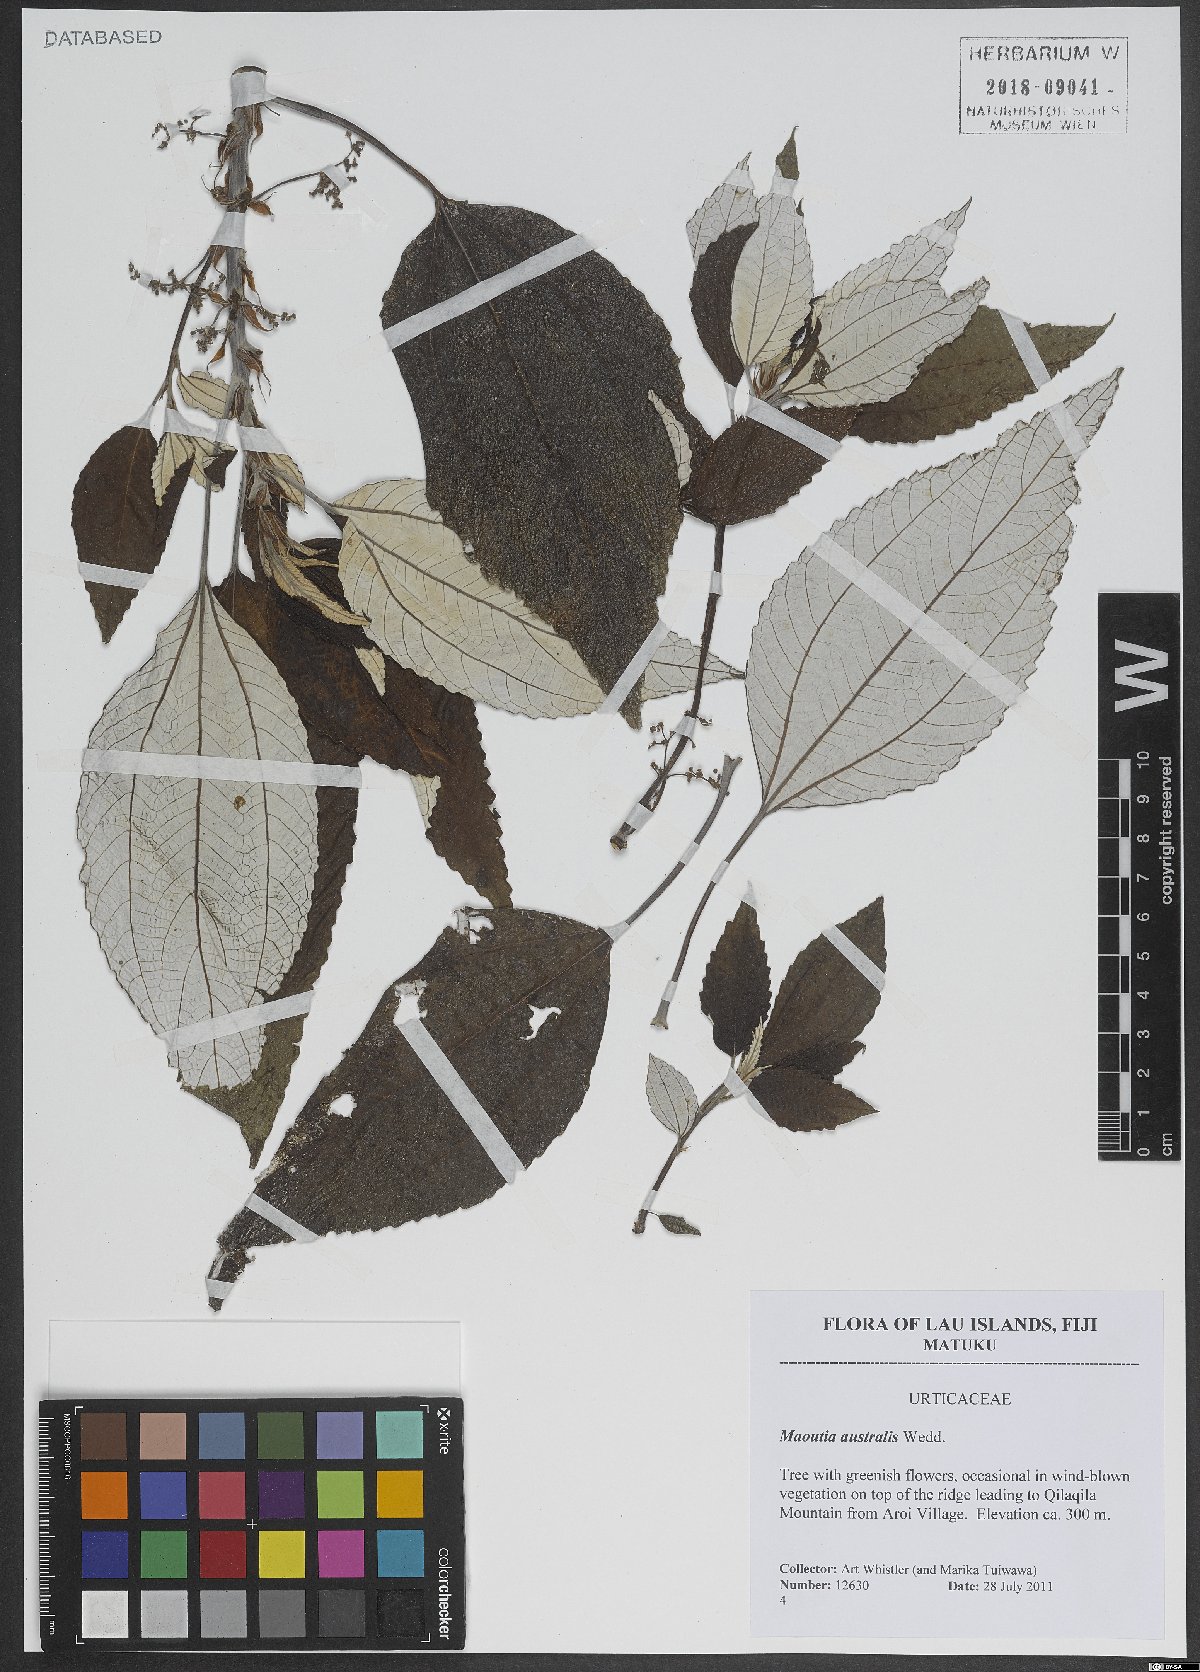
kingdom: Plantae
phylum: Tracheophyta
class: Magnoliopsida
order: Rosales
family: Urticaceae
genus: Maoutia
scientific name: Maoutia australis
